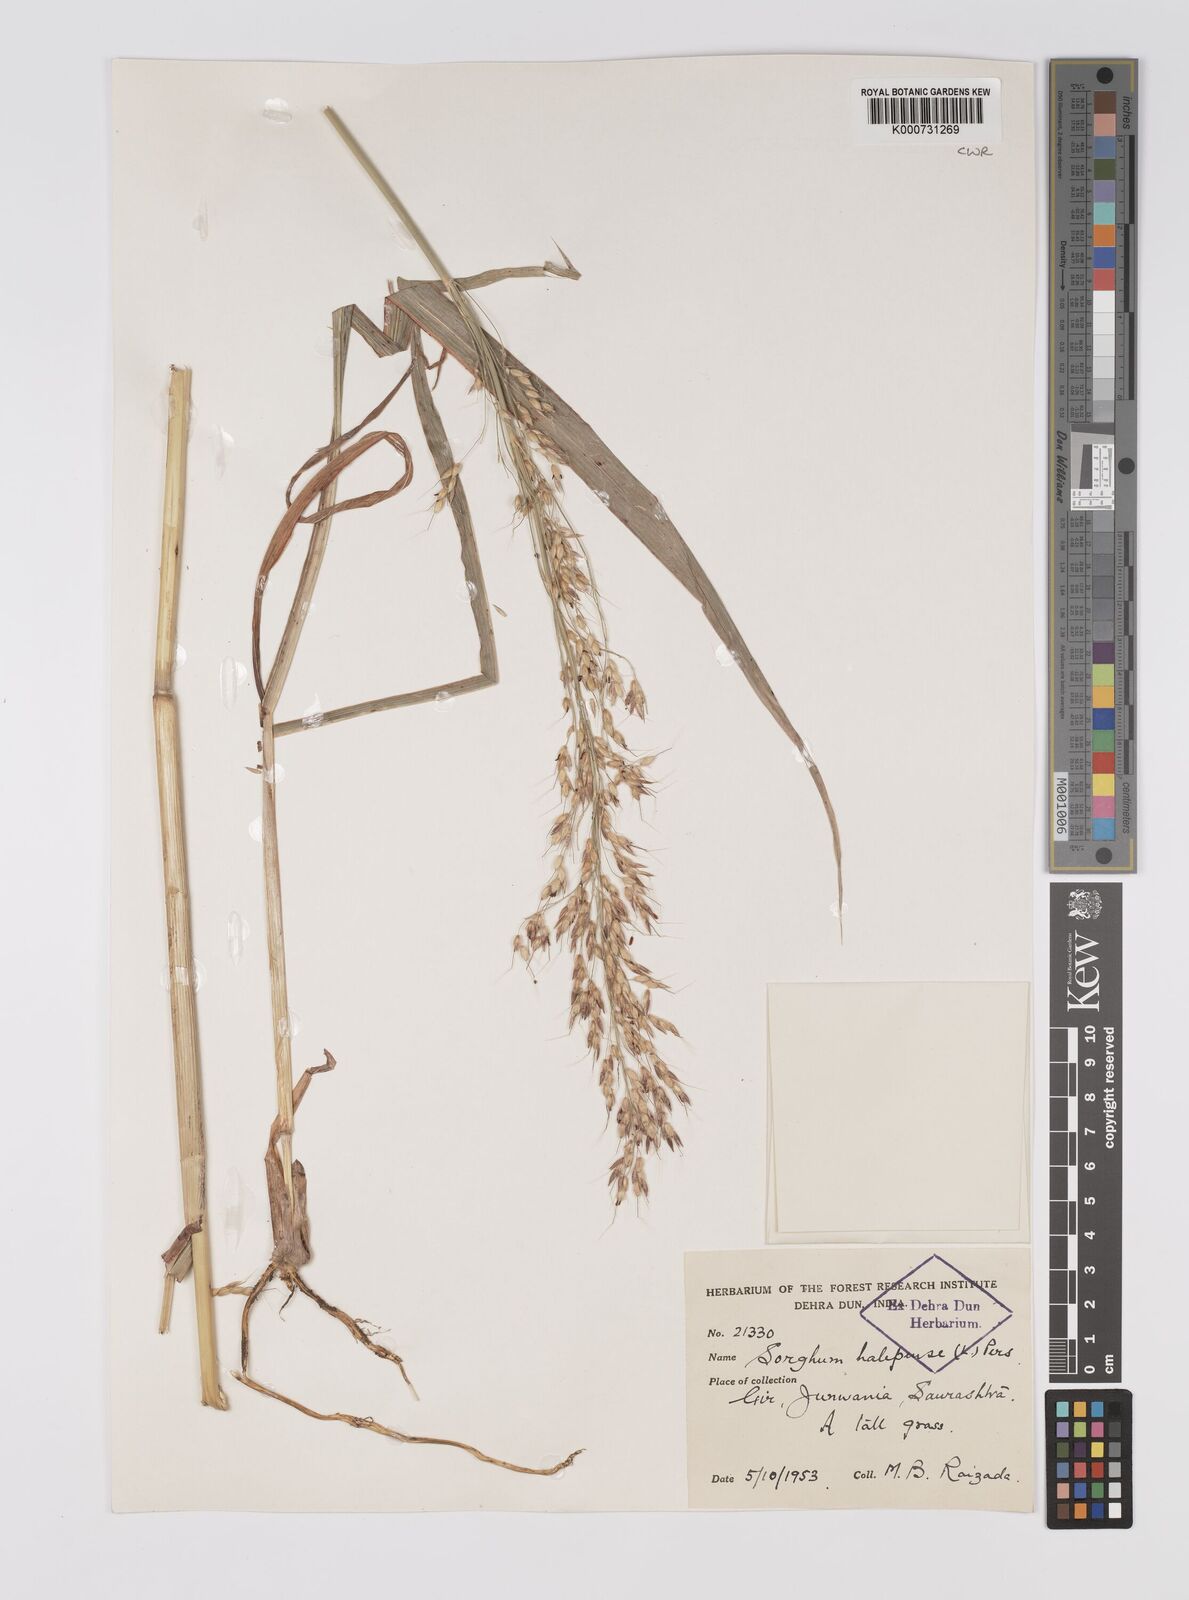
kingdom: Plantae
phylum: Tracheophyta
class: Liliopsida
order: Poales
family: Poaceae
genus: Sorghum
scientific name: Sorghum halepense
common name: Johnson-grass
